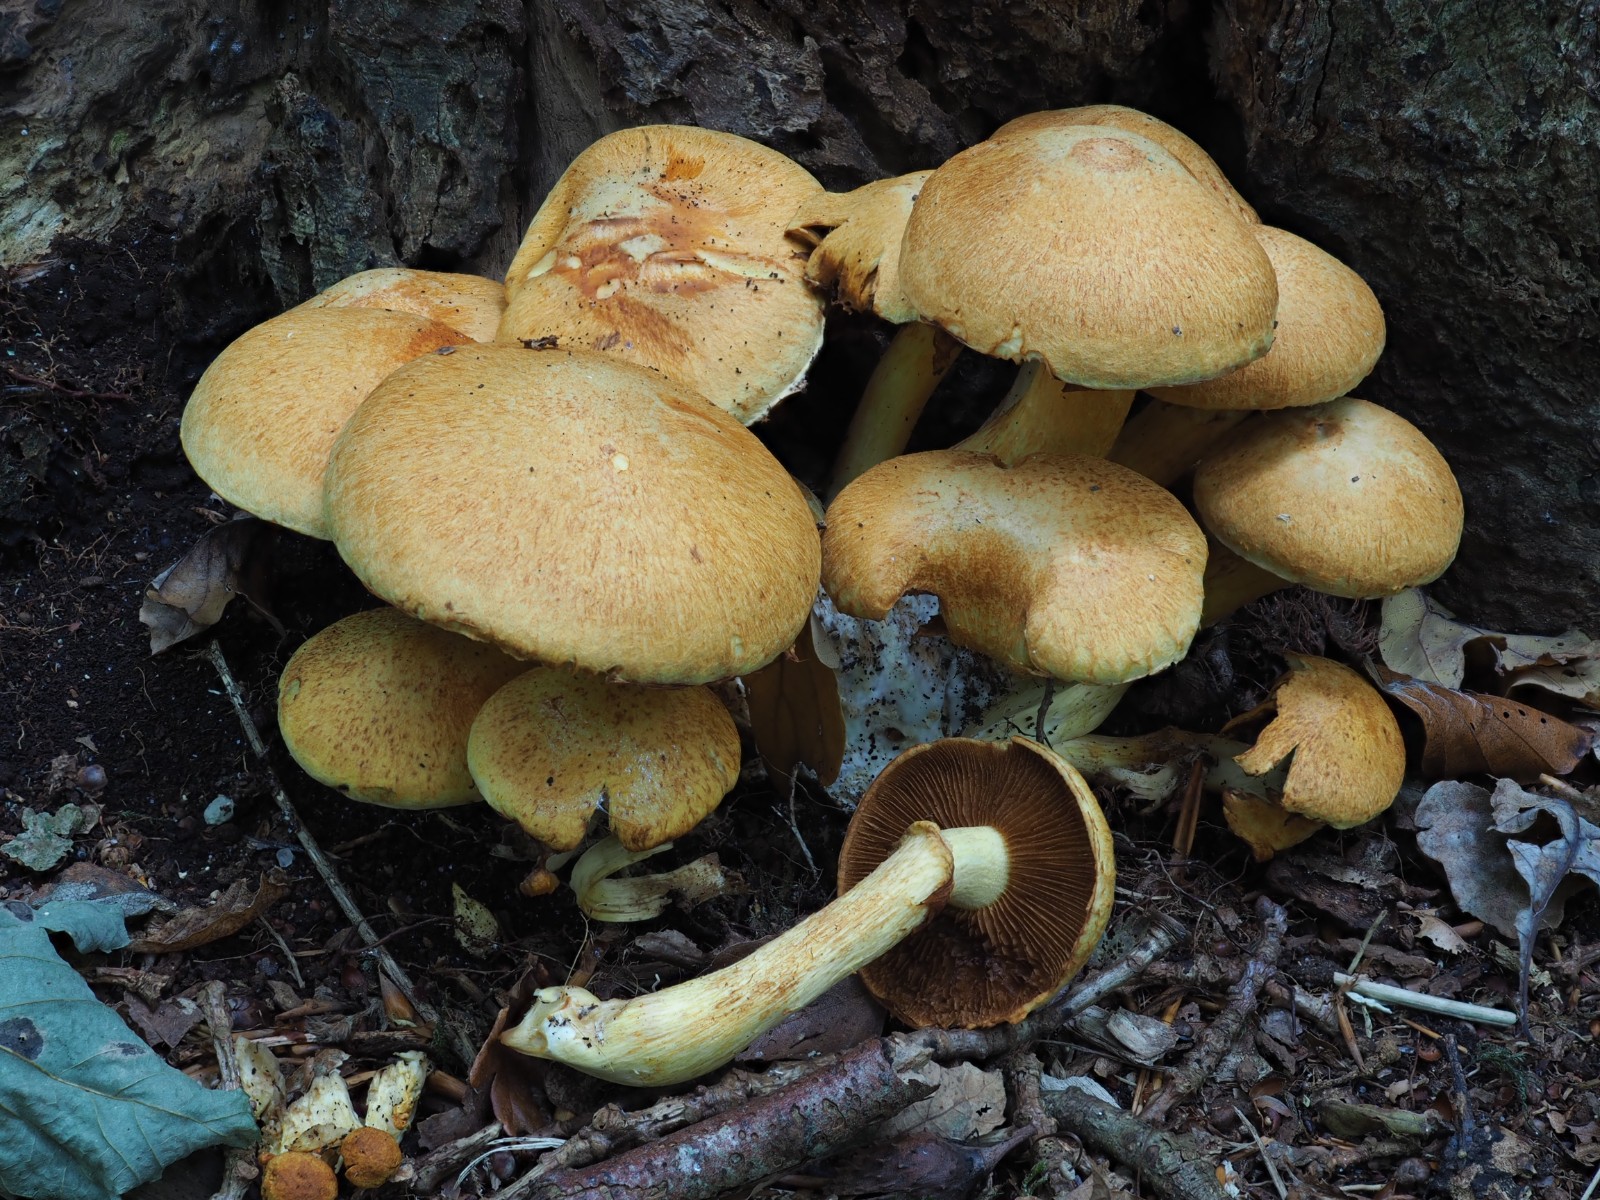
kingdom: Fungi
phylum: Basidiomycota
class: Agaricomycetes
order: Agaricales
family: Hymenogastraceae
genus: Gymnopilus
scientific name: Gymnopilus spectabilis
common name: fibret flammehat
